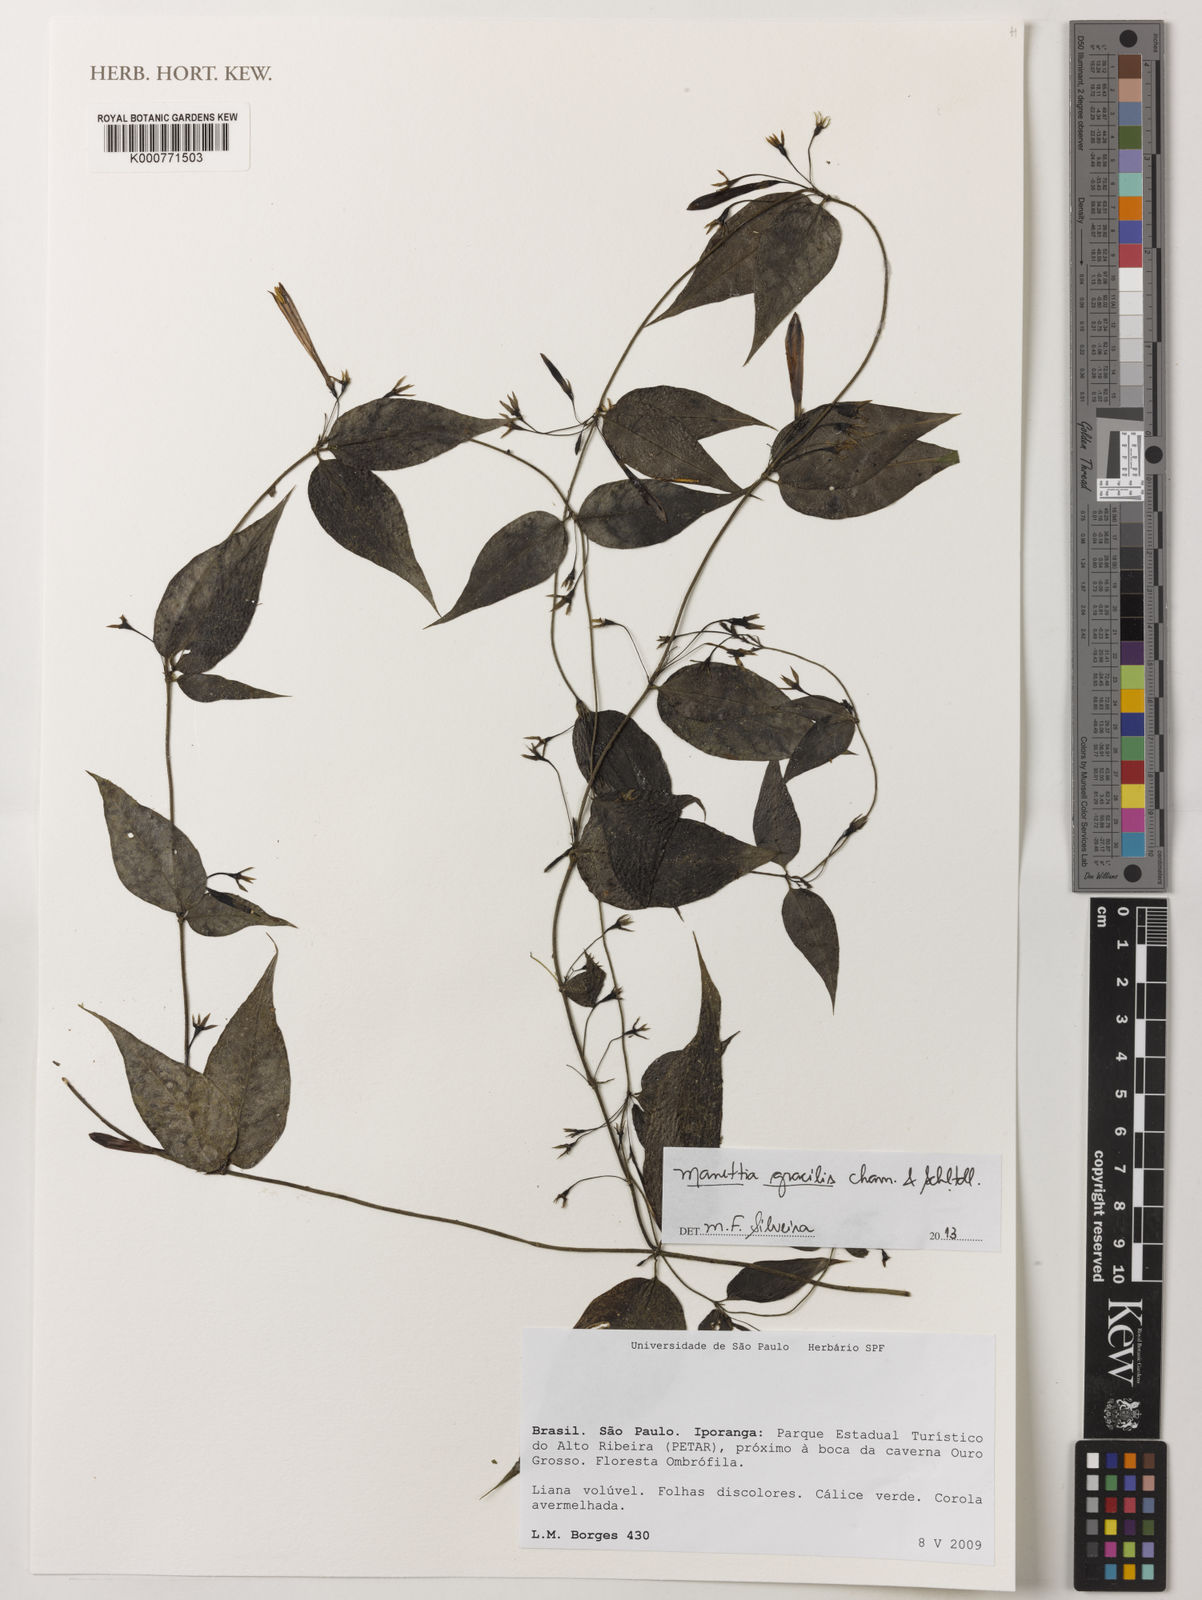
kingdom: Plantae
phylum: Tracheophyta
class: Magnoliopsida
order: Gentianales
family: Rubiaceae
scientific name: Rubiaceae
